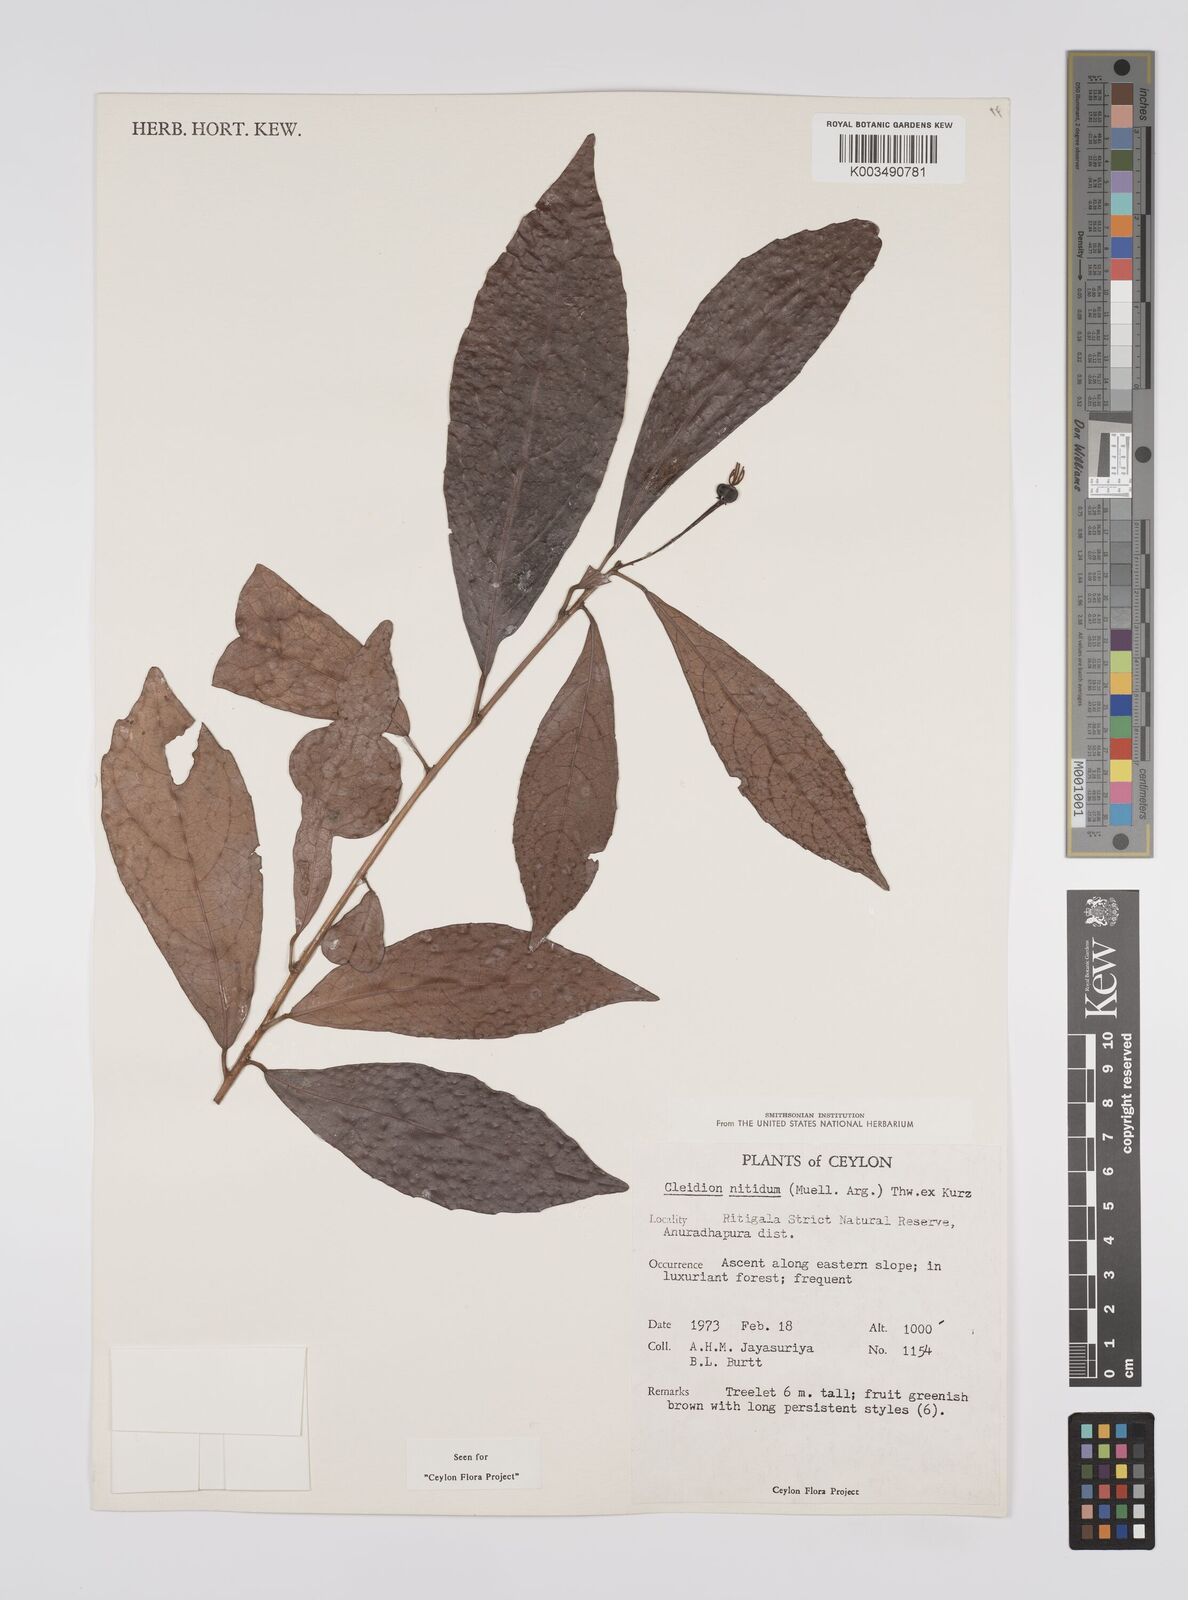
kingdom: Plantae
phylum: Tracheophyta
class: Magnoliopsida
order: Malpighiales
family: Euphorbiaceae
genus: Cleidion
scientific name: Cleidion nitidum
